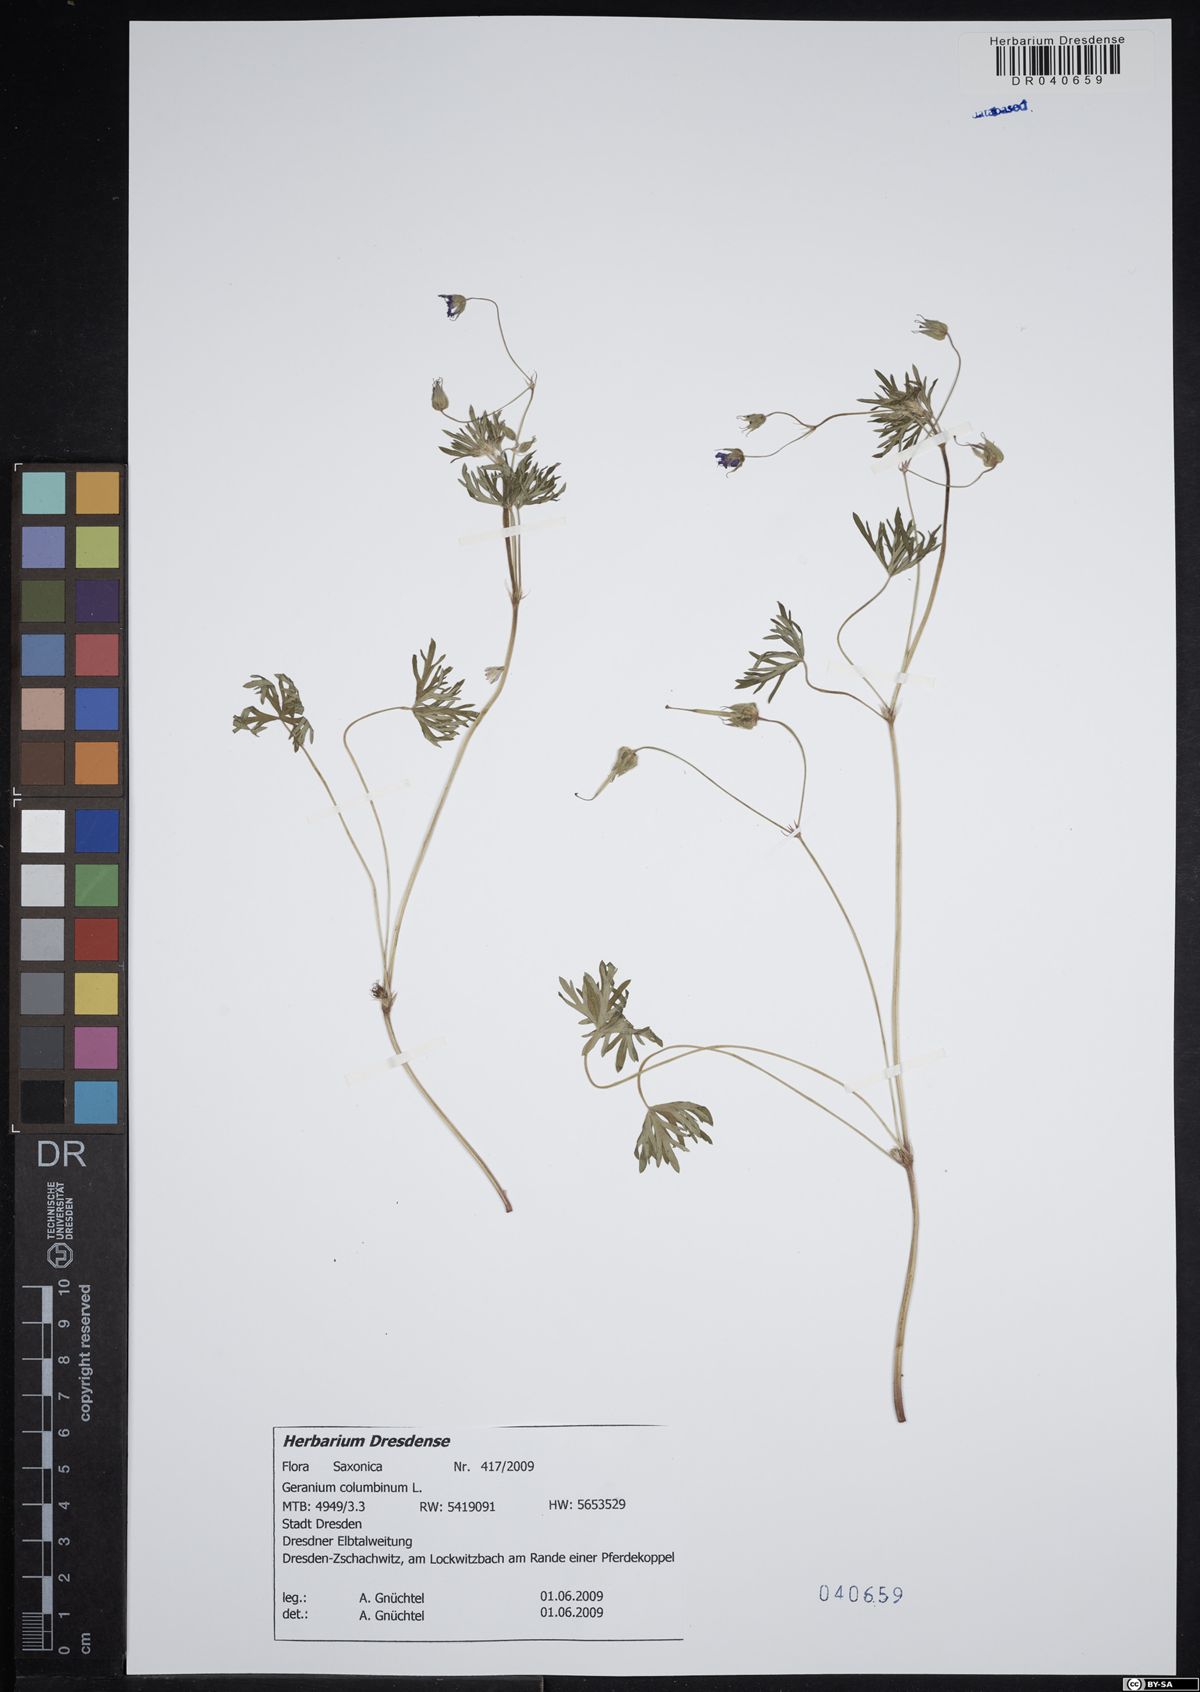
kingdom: Plantae
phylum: Tracheophyta
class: Magnoliopsida
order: Geraniales
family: Geraniaceae
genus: Geranium
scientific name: Geranium columbinum
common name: Long-stalked crane's-bill
